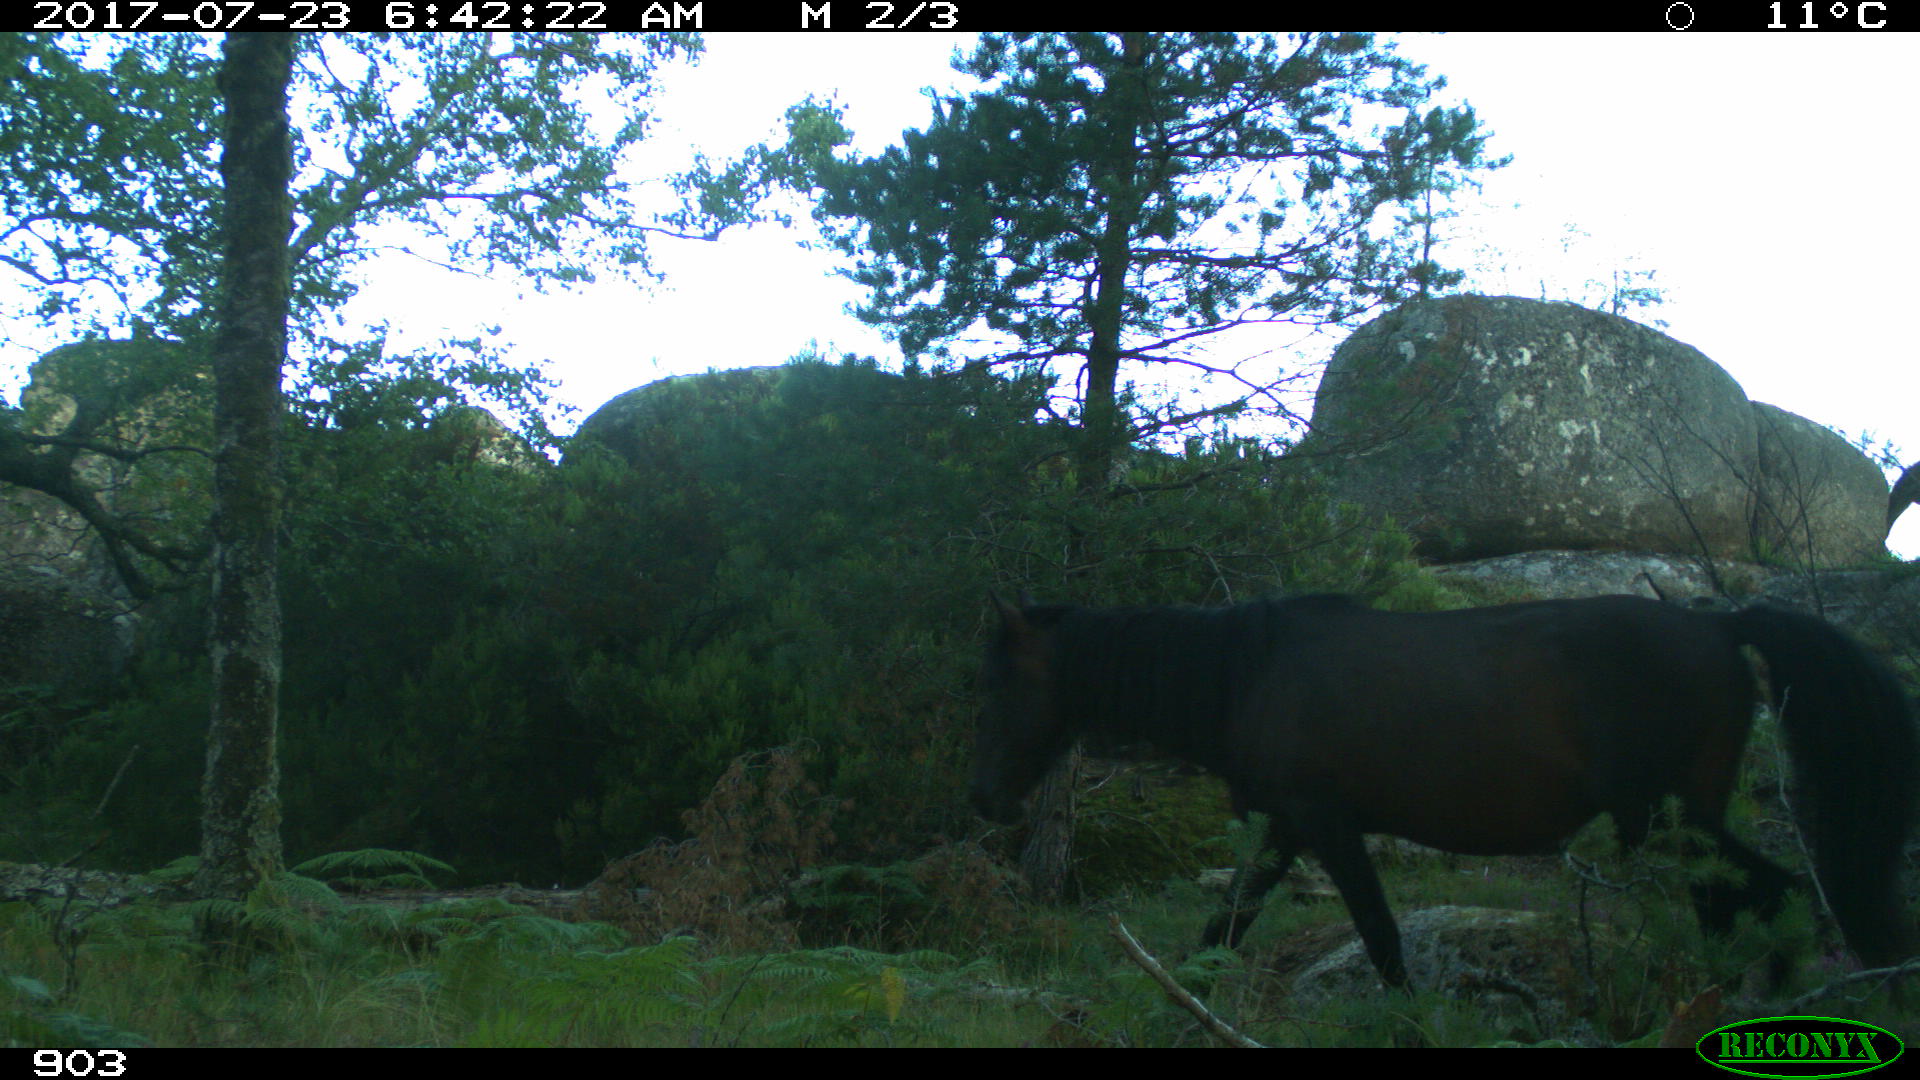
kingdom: Animalia
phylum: Chordata
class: Mammalia
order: Perissodactyla
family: Equidae
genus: Equus
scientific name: Equus caballus
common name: Horse
